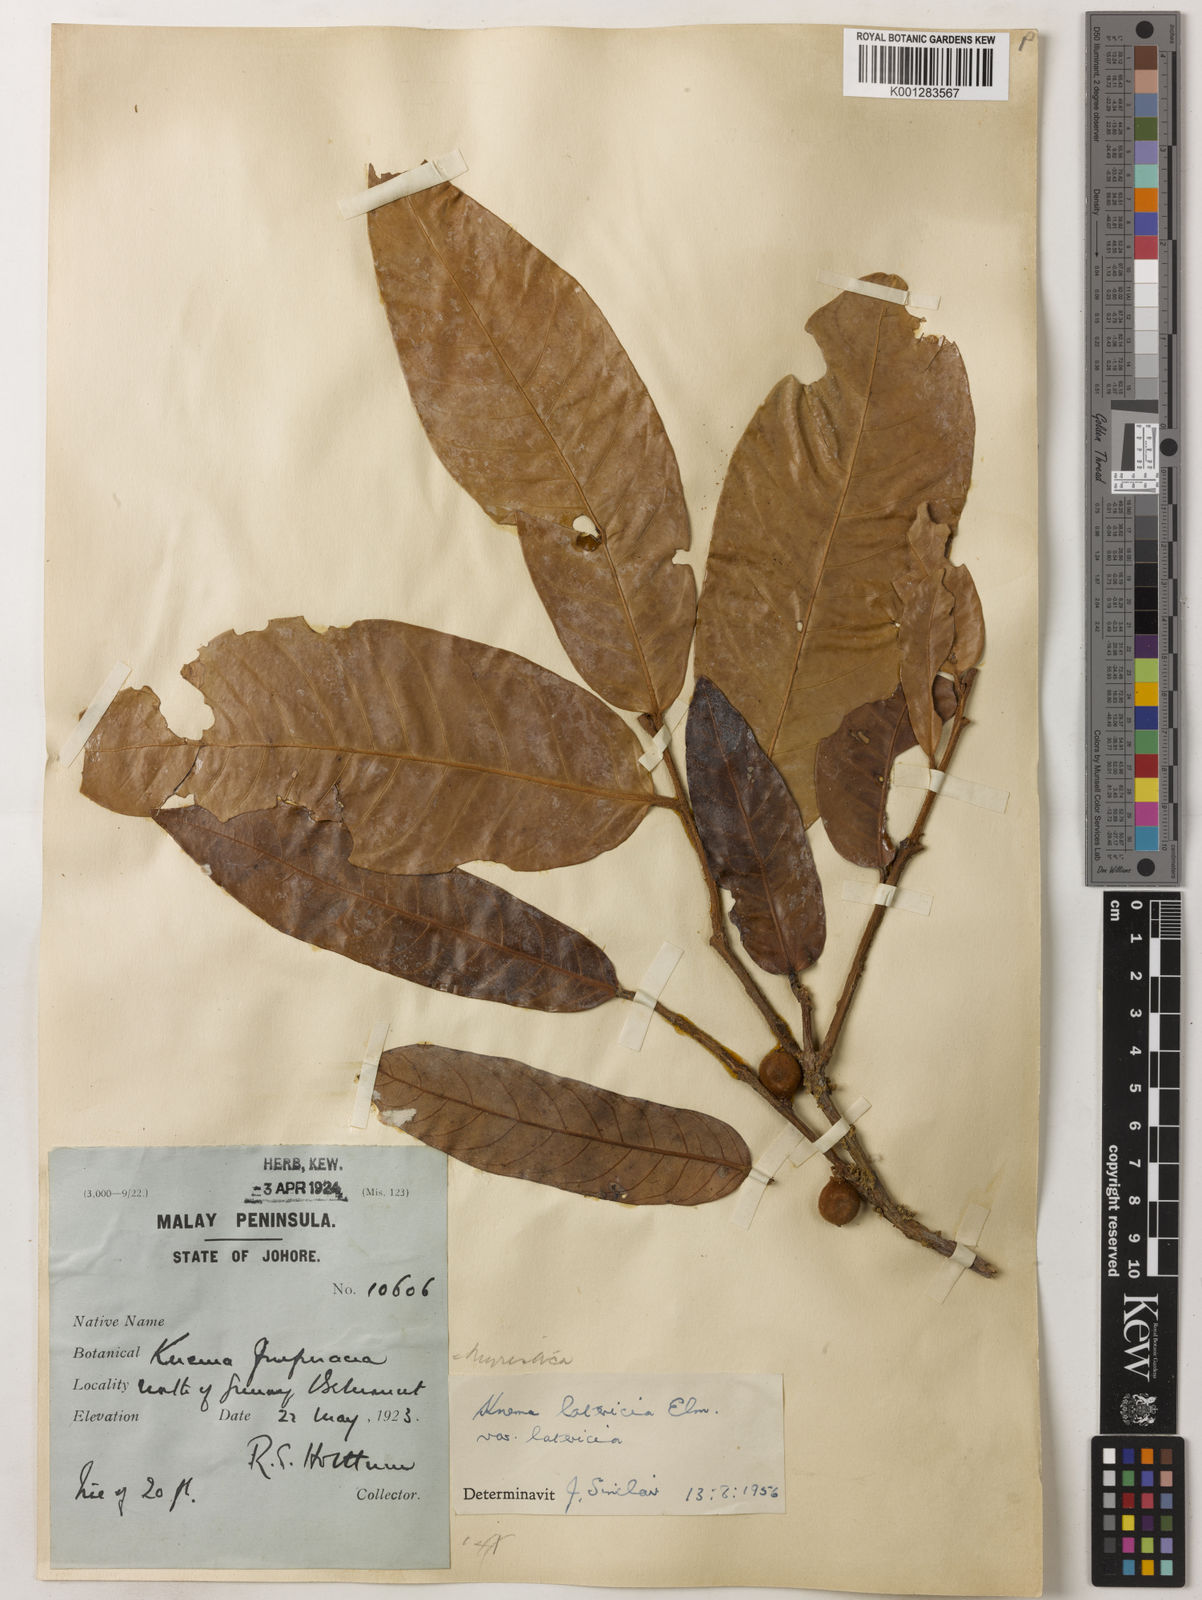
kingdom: Plantae
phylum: Tracheophyta
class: Magnoliopsida
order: Magnoliales
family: Myristicaceae
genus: Knema
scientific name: Knema latericia
